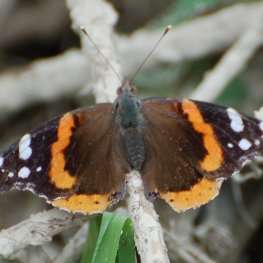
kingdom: Animalia
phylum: Arthropoda
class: Insecta
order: Lepidoptera
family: Nymphalidae
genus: Vanessa
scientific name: Vanessa atalanta
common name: Red Admiral
